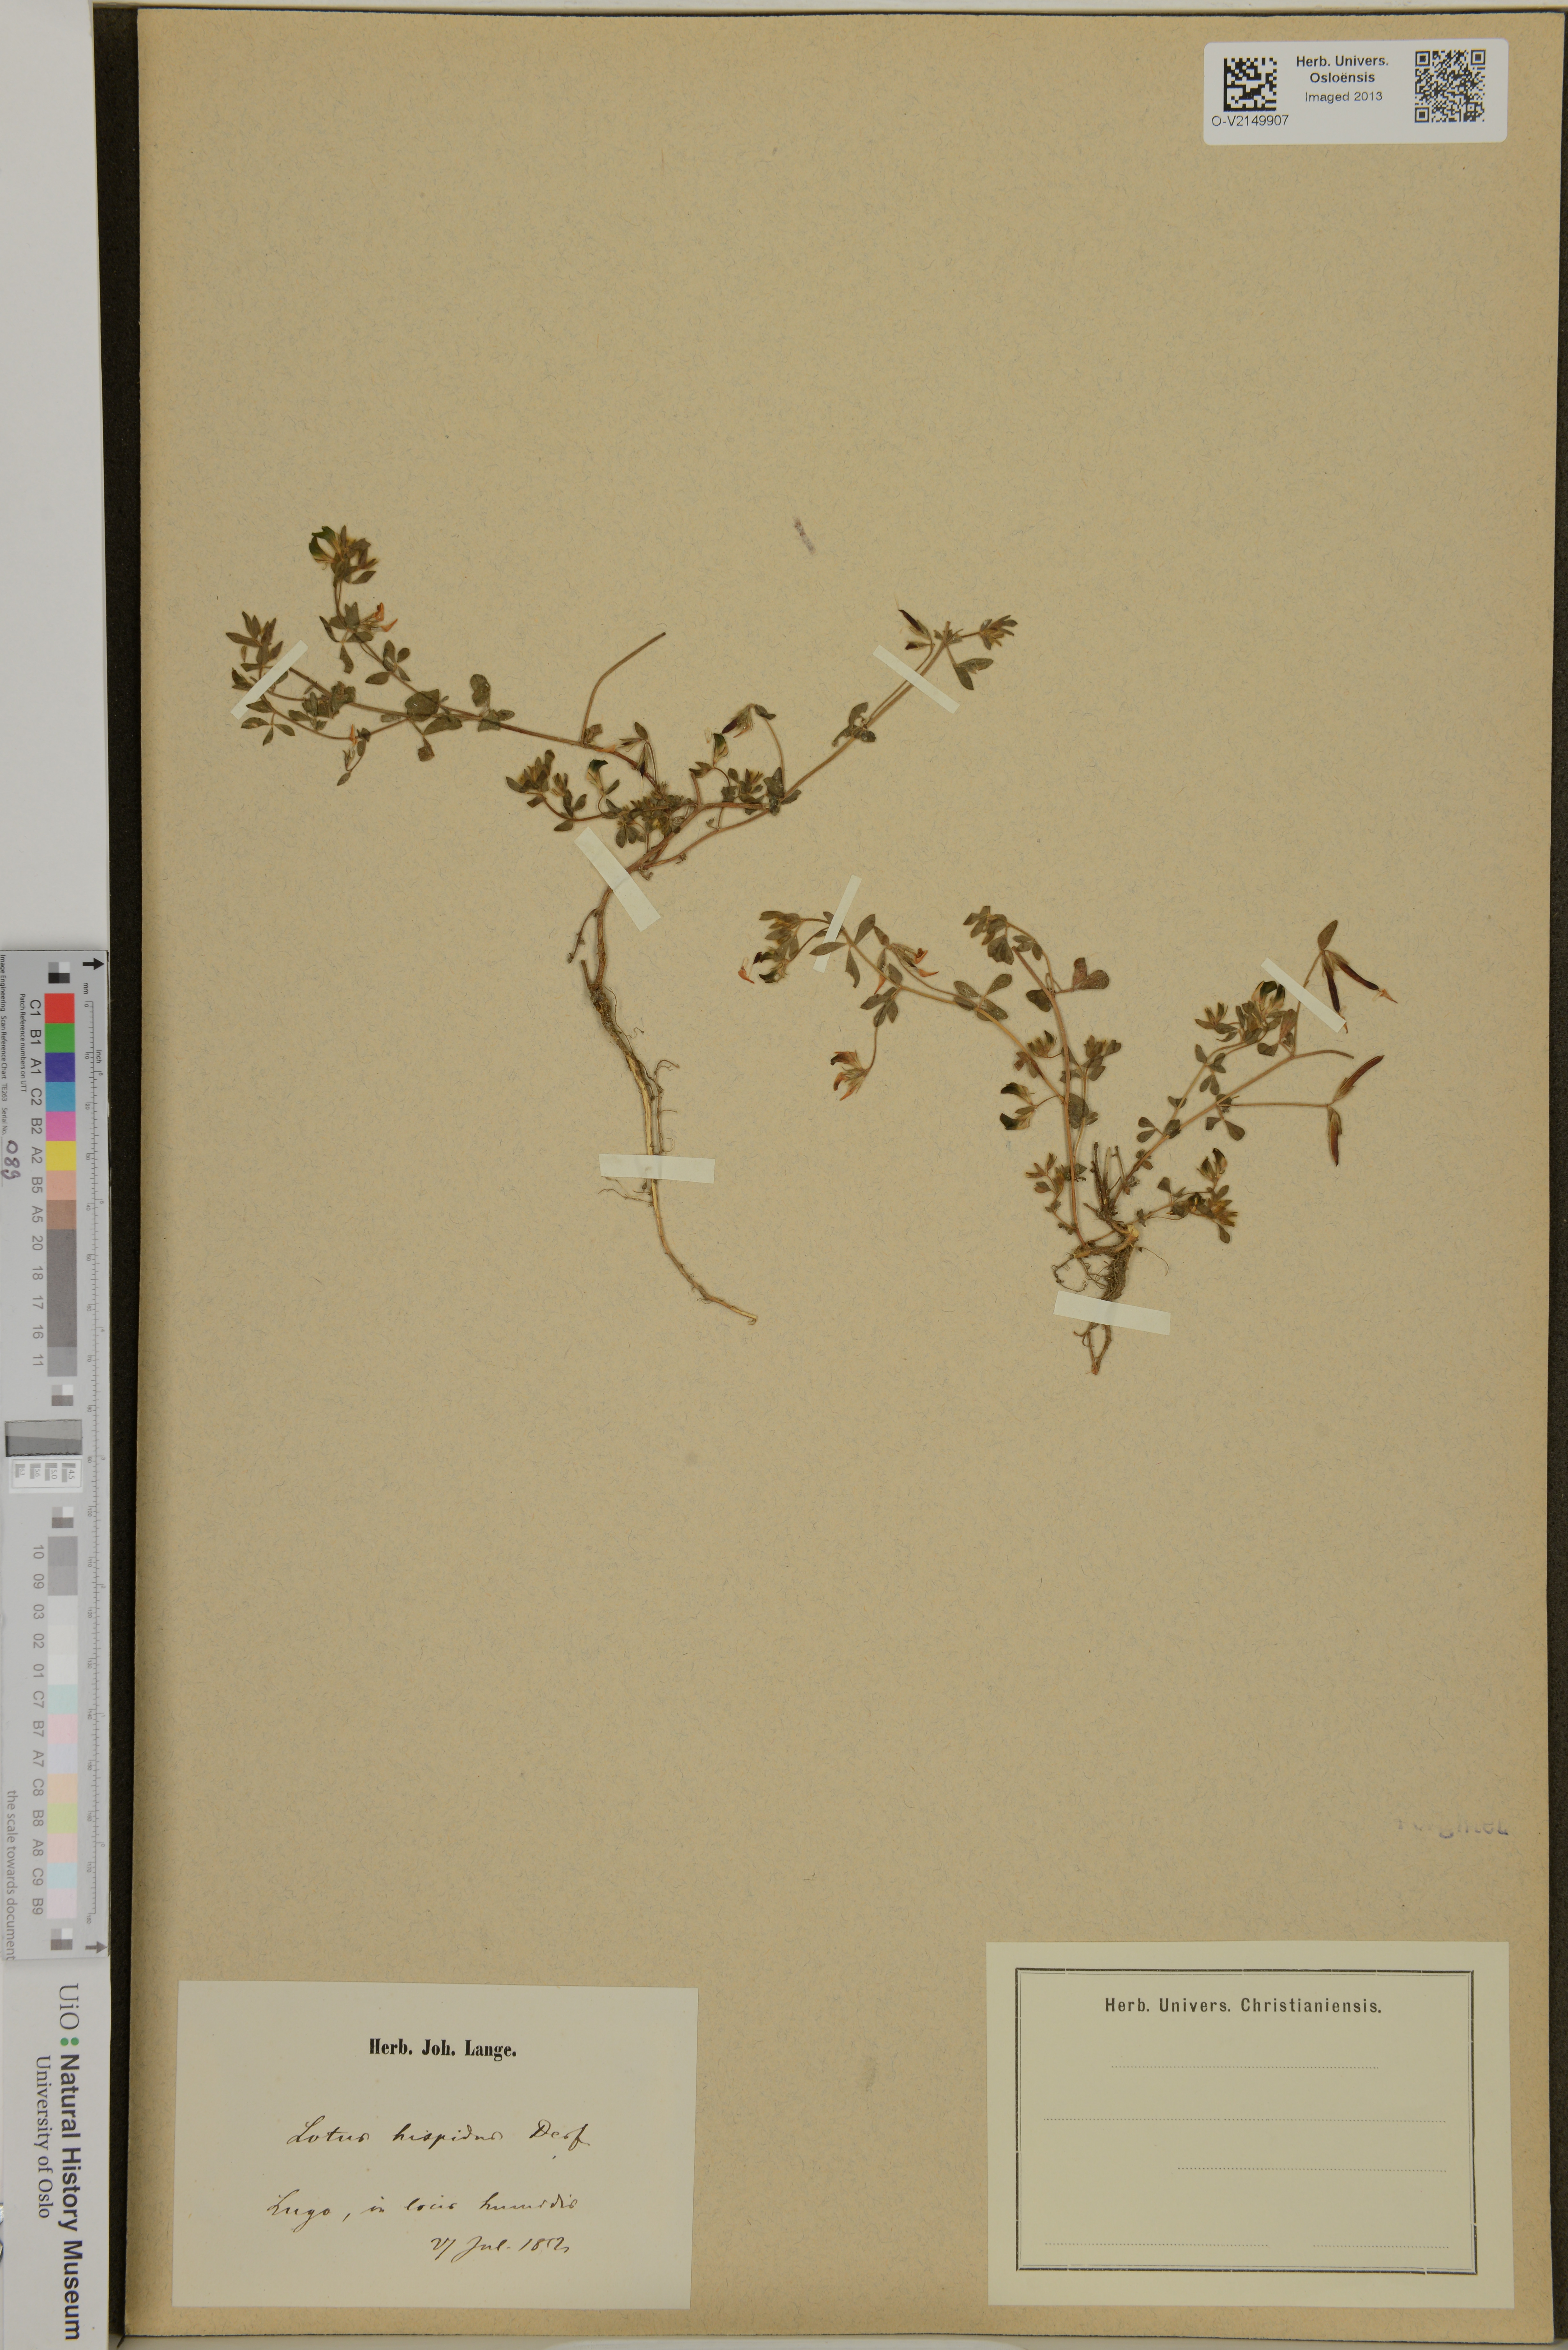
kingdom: Plantae
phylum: Tracheophyta
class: Magnoliopsida
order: Fabales
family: Fabaceae
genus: Lotus
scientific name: Lotus hispidus
